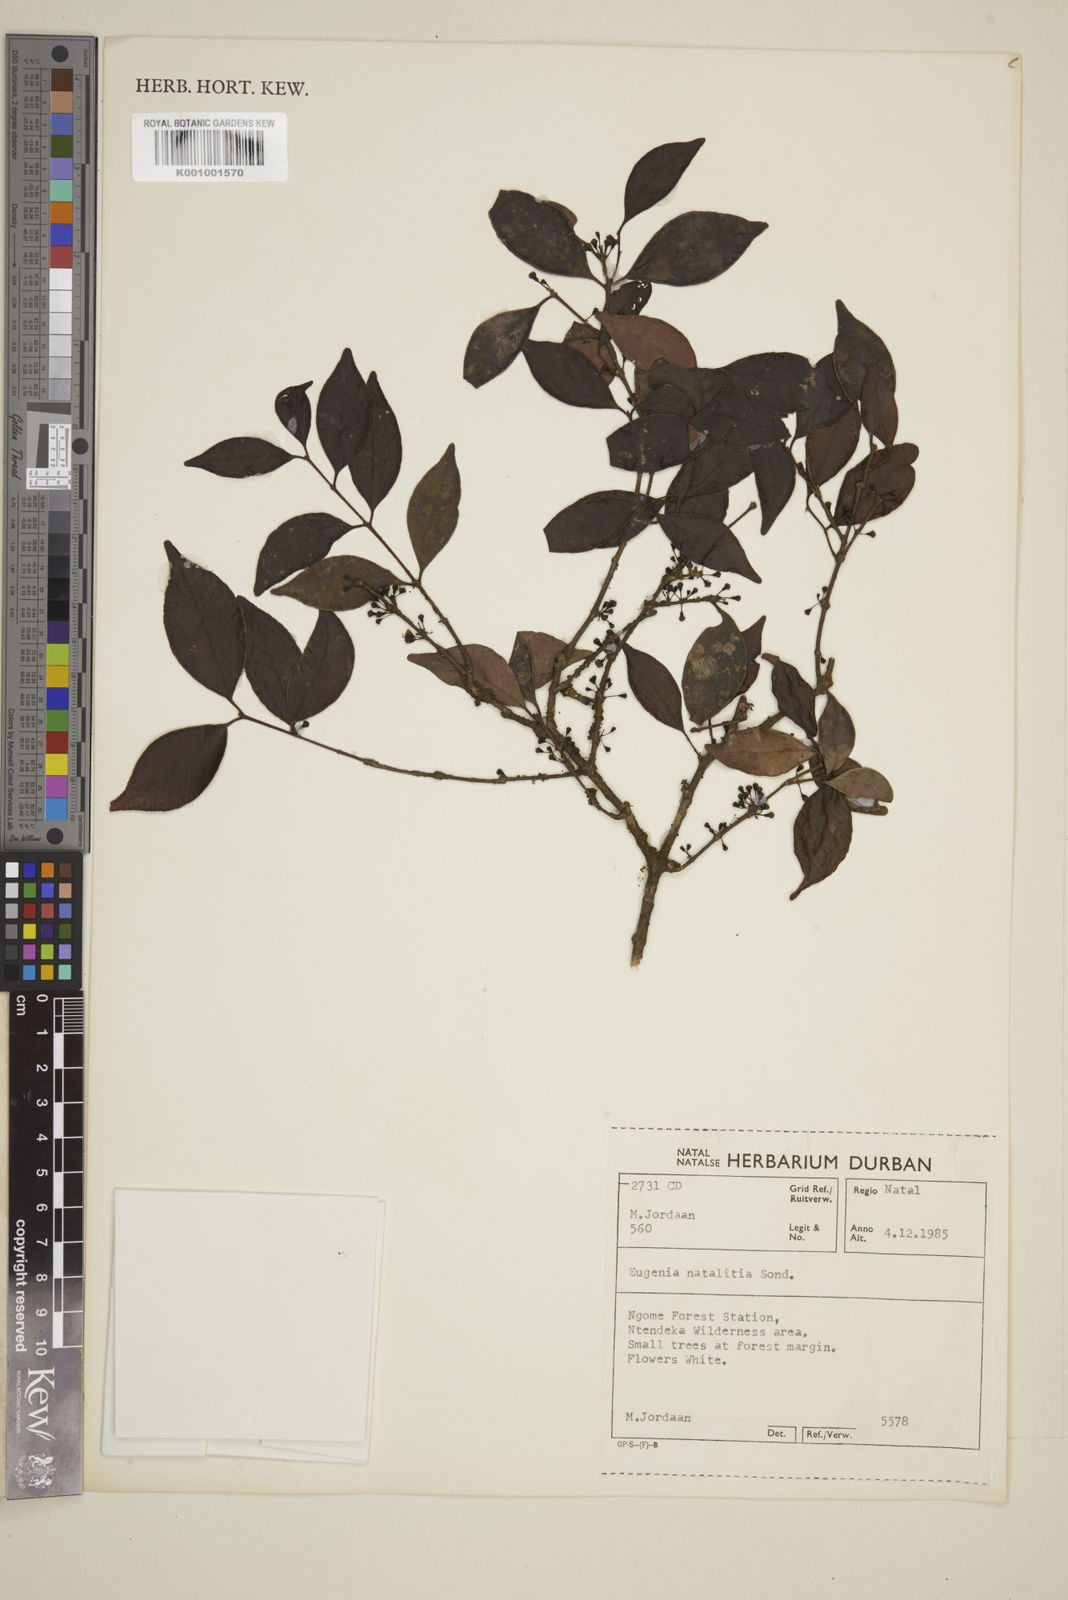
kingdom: Plantae
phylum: Tracheophyta
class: Magnoliopsida
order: Myrtales
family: Myrtaceae
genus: Eugenia
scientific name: Eugenia natalitia
